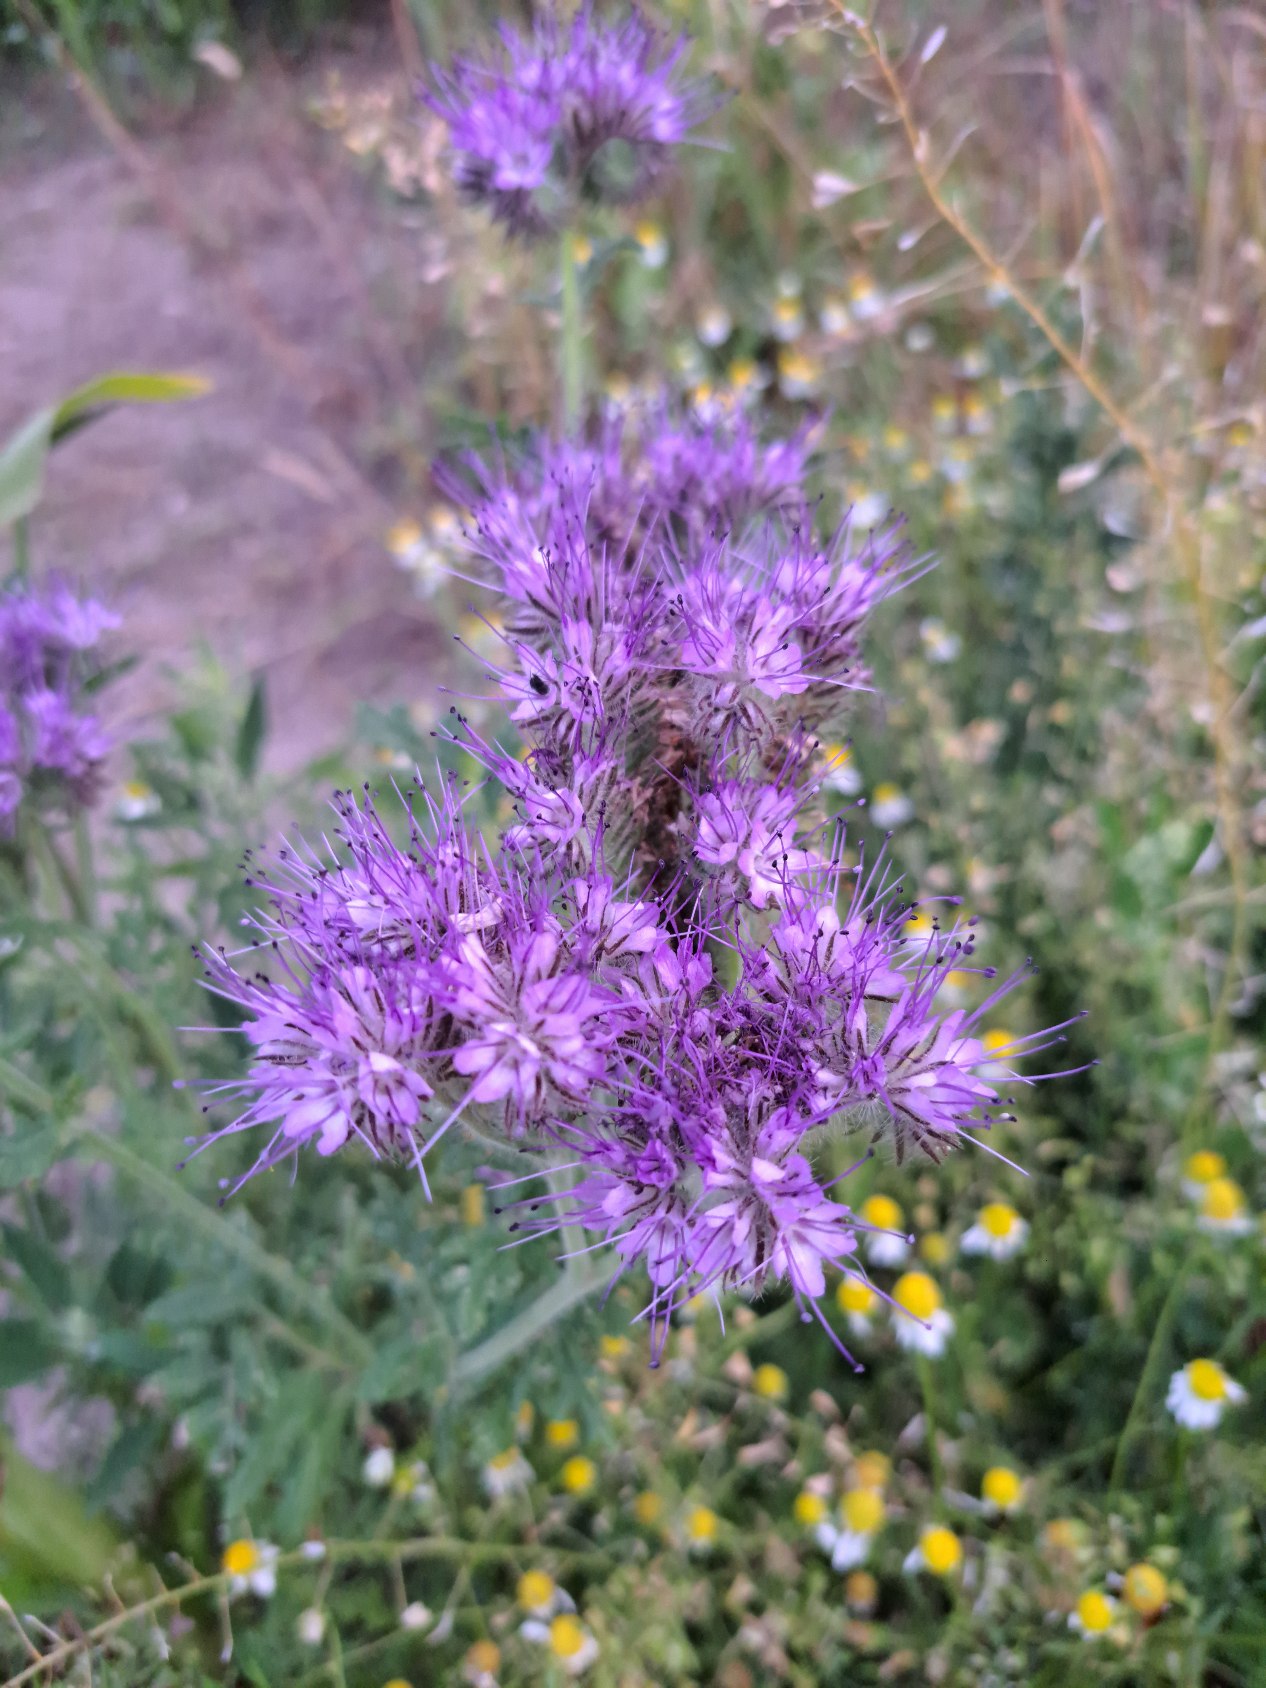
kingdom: Plantae
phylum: Tracheophyta
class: Magnoliopsida
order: Boraginales
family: Hydrophyllaceae
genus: Phacelia
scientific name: Phacelia tanacetifolia
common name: Honningurt
